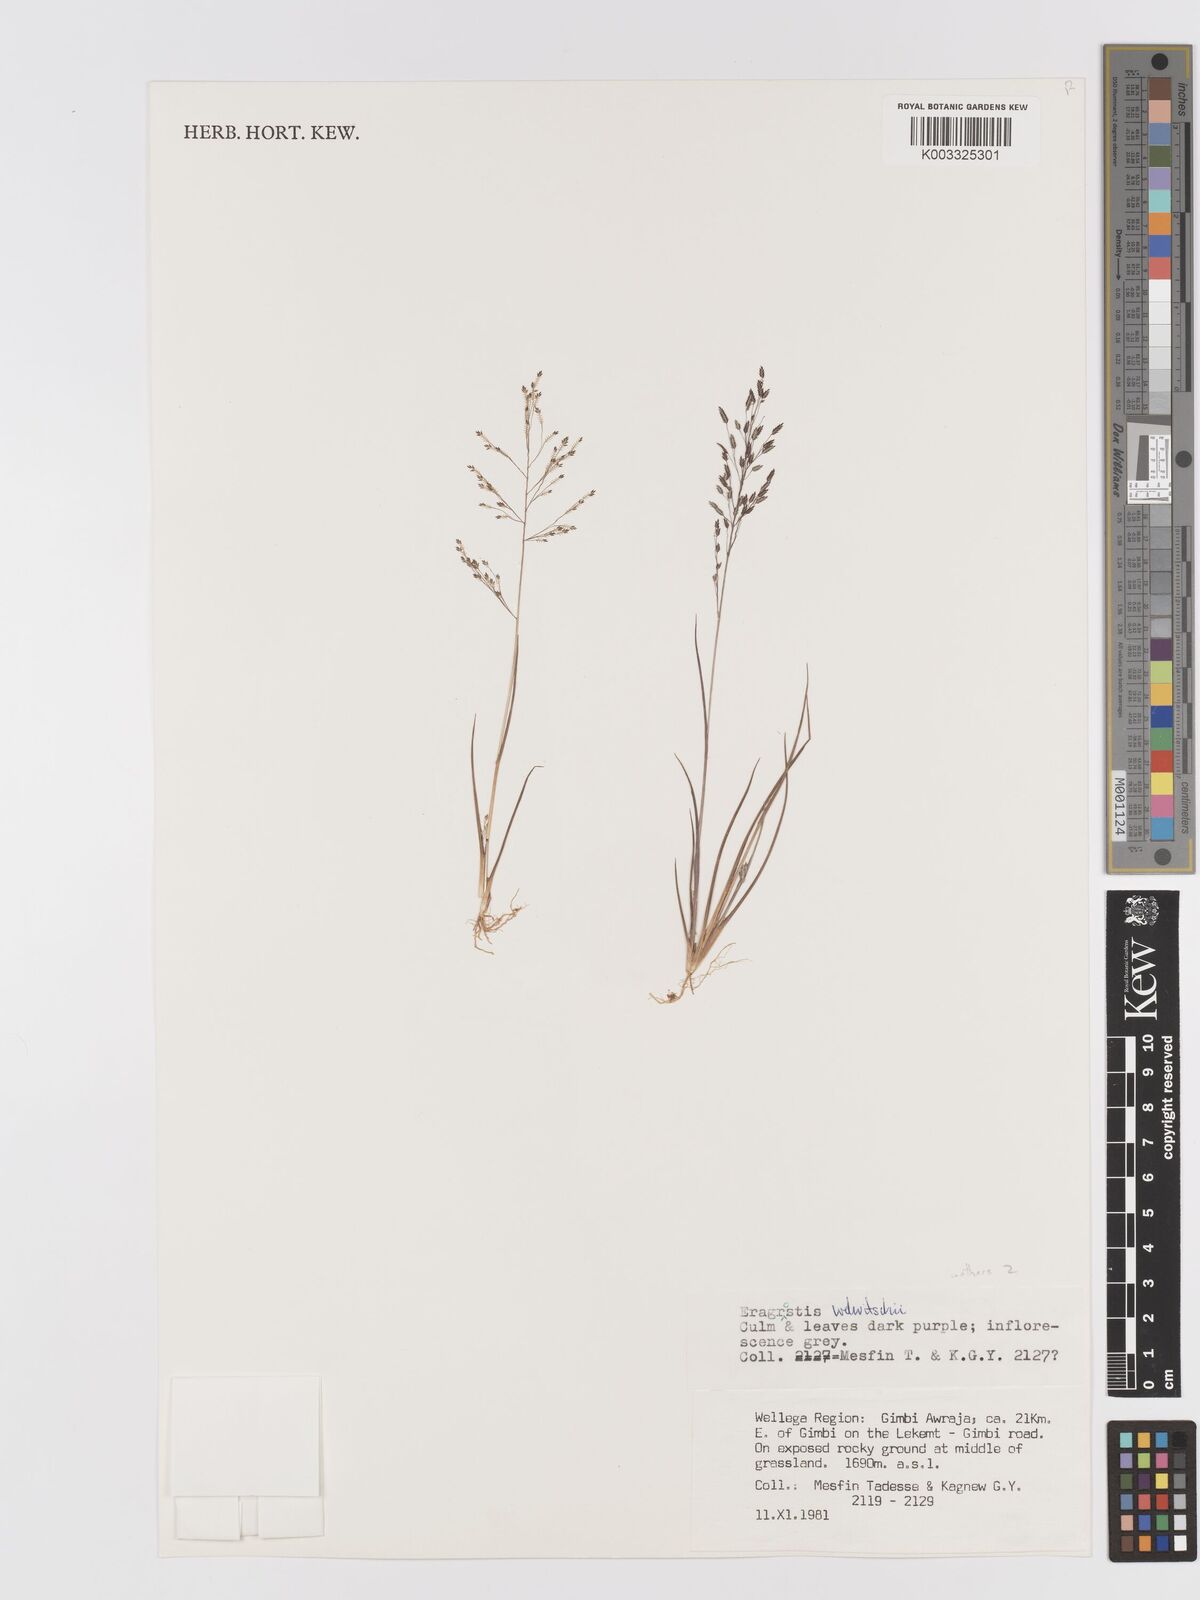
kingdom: Plantae
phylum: Tracheophyta
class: Liliopsida
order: Poales
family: Poaceae
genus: Eragrostis
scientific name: Eragrostis welwitschii
